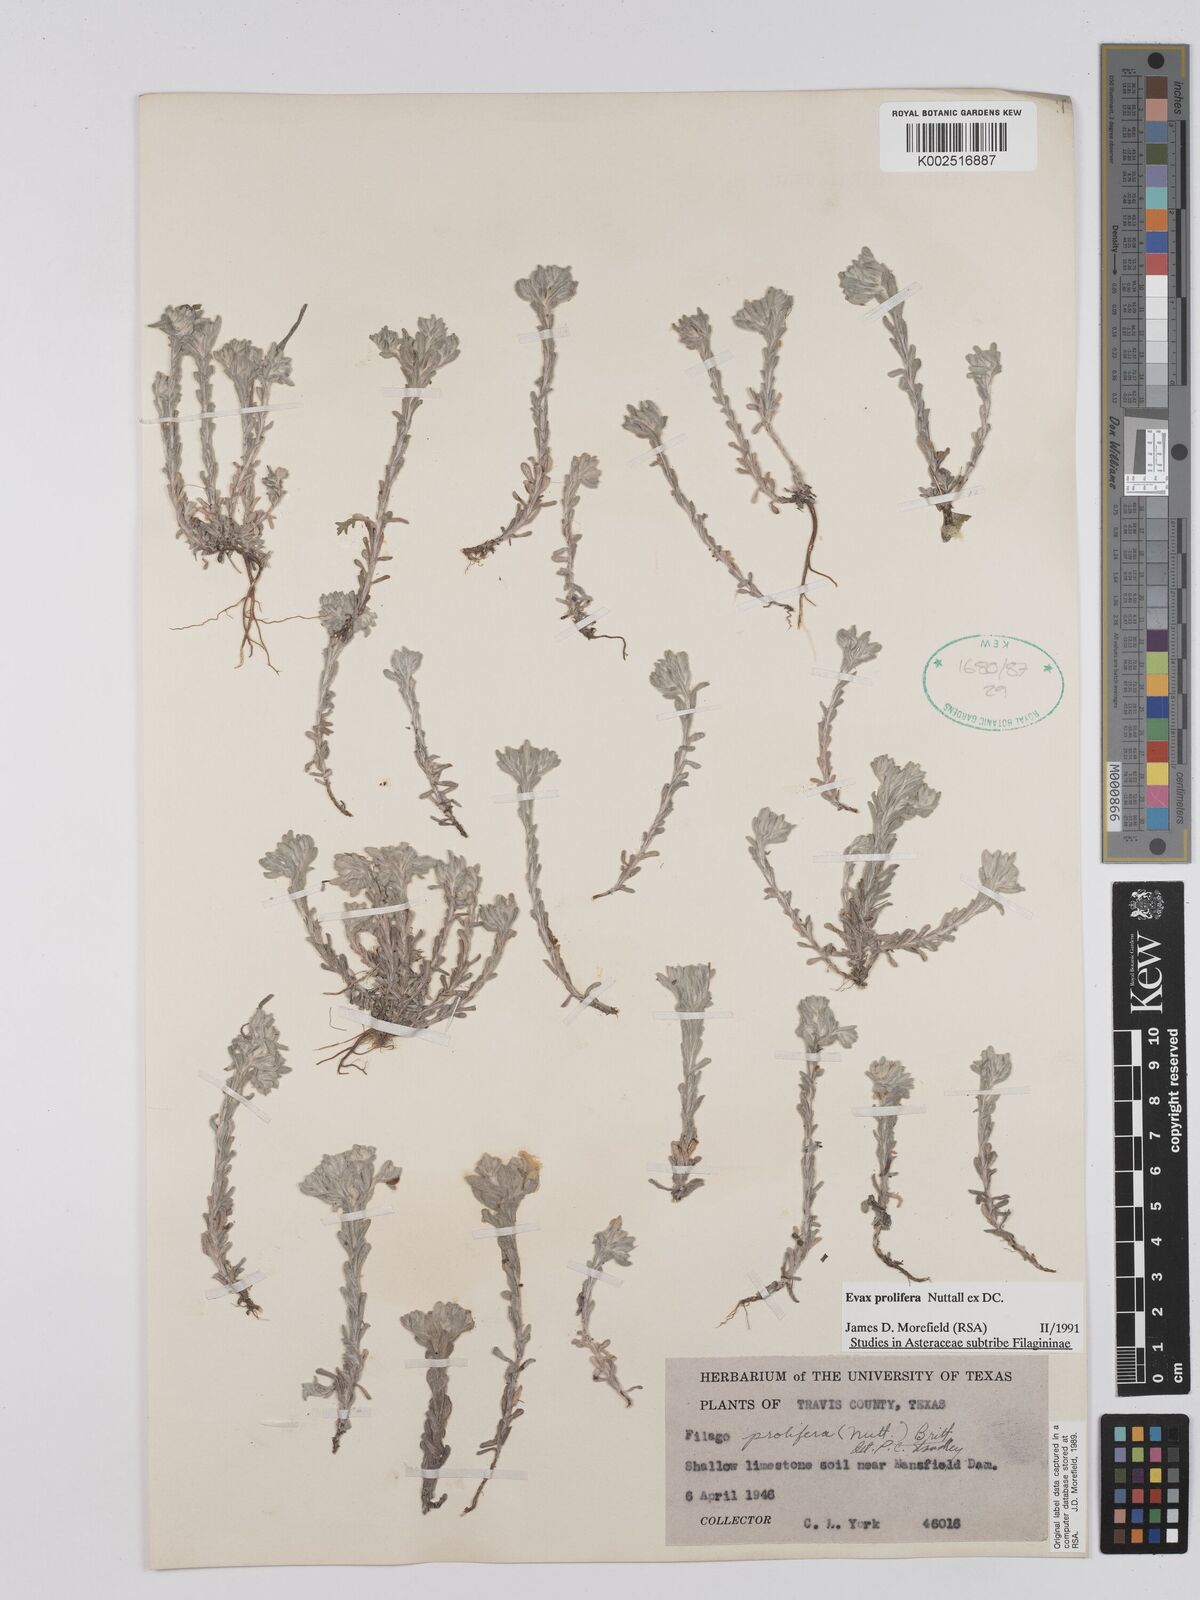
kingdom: Plantae
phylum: Tracheophyta
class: Magnoliopsida
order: Asterales
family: Asteraceae
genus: Diaperia
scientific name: Diaperia prolifera
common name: Big-head rabbit-tobacco
